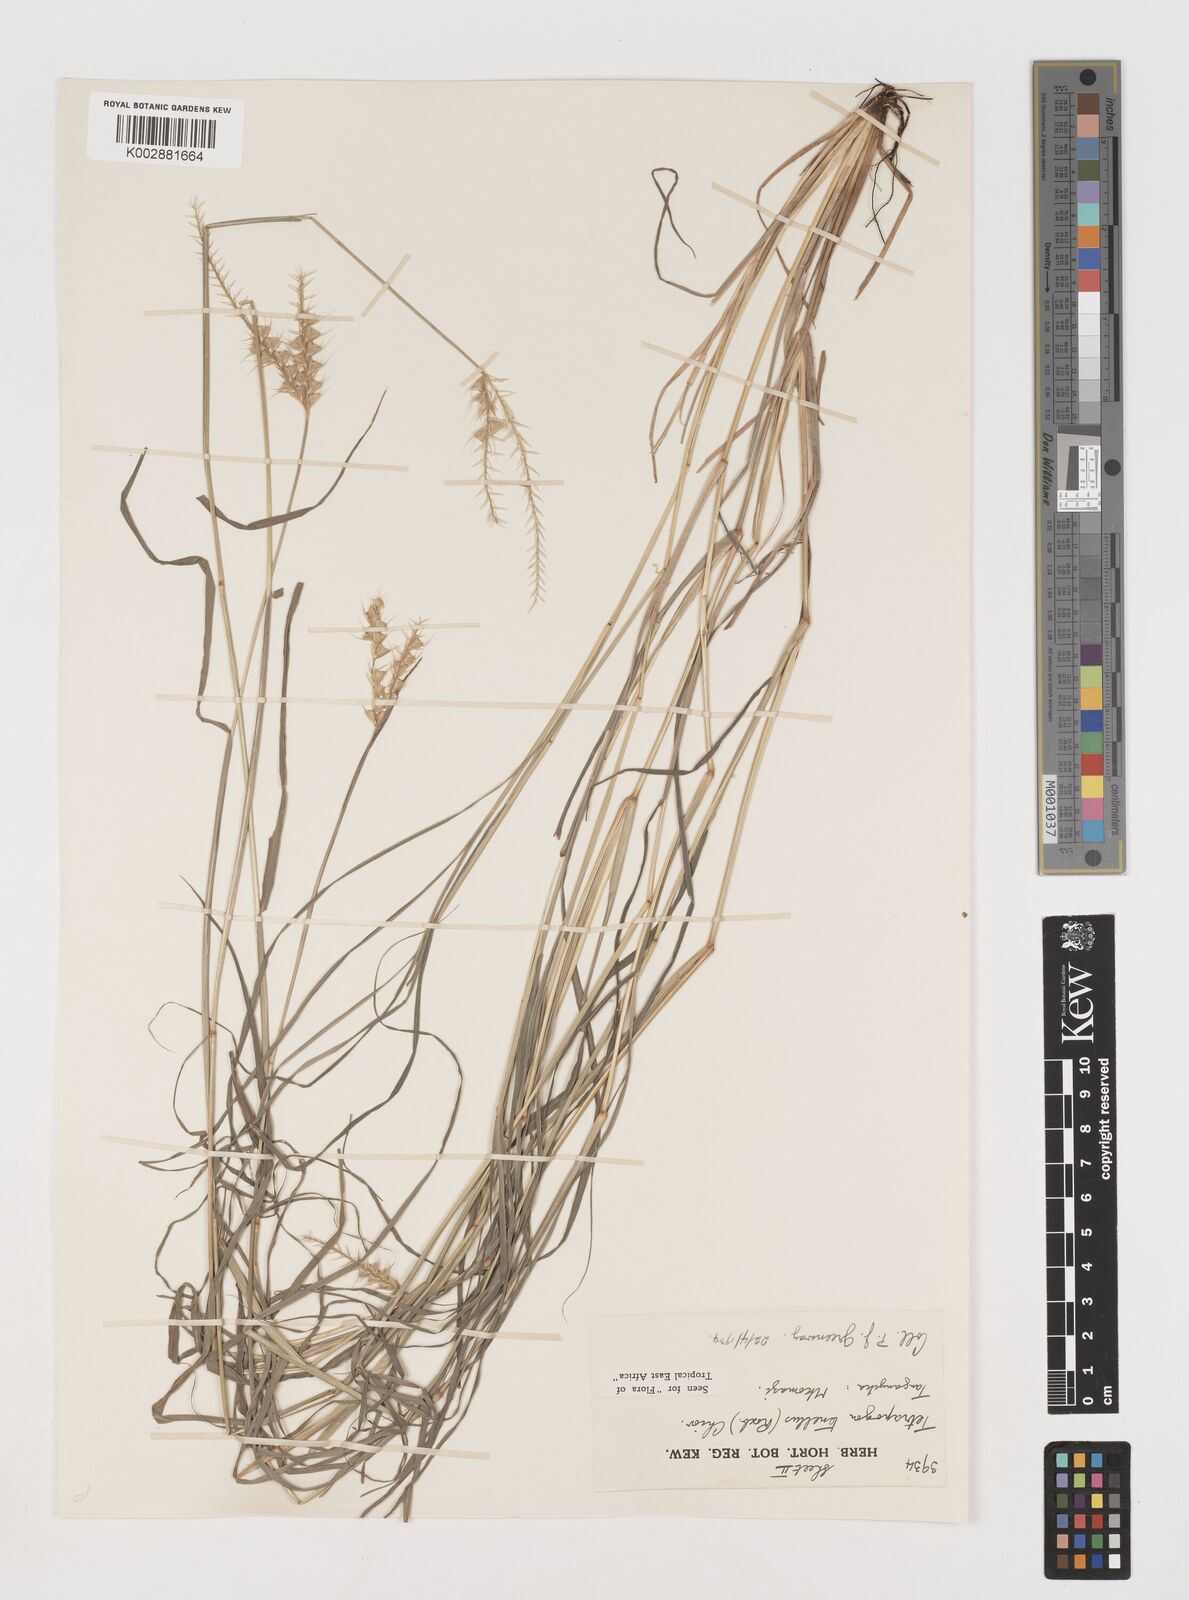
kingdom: Plantae
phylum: Tracheophyta
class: Liliopsida
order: Poales
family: Poaceae
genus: Tetrapogon
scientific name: Tetrapogon tenellus
